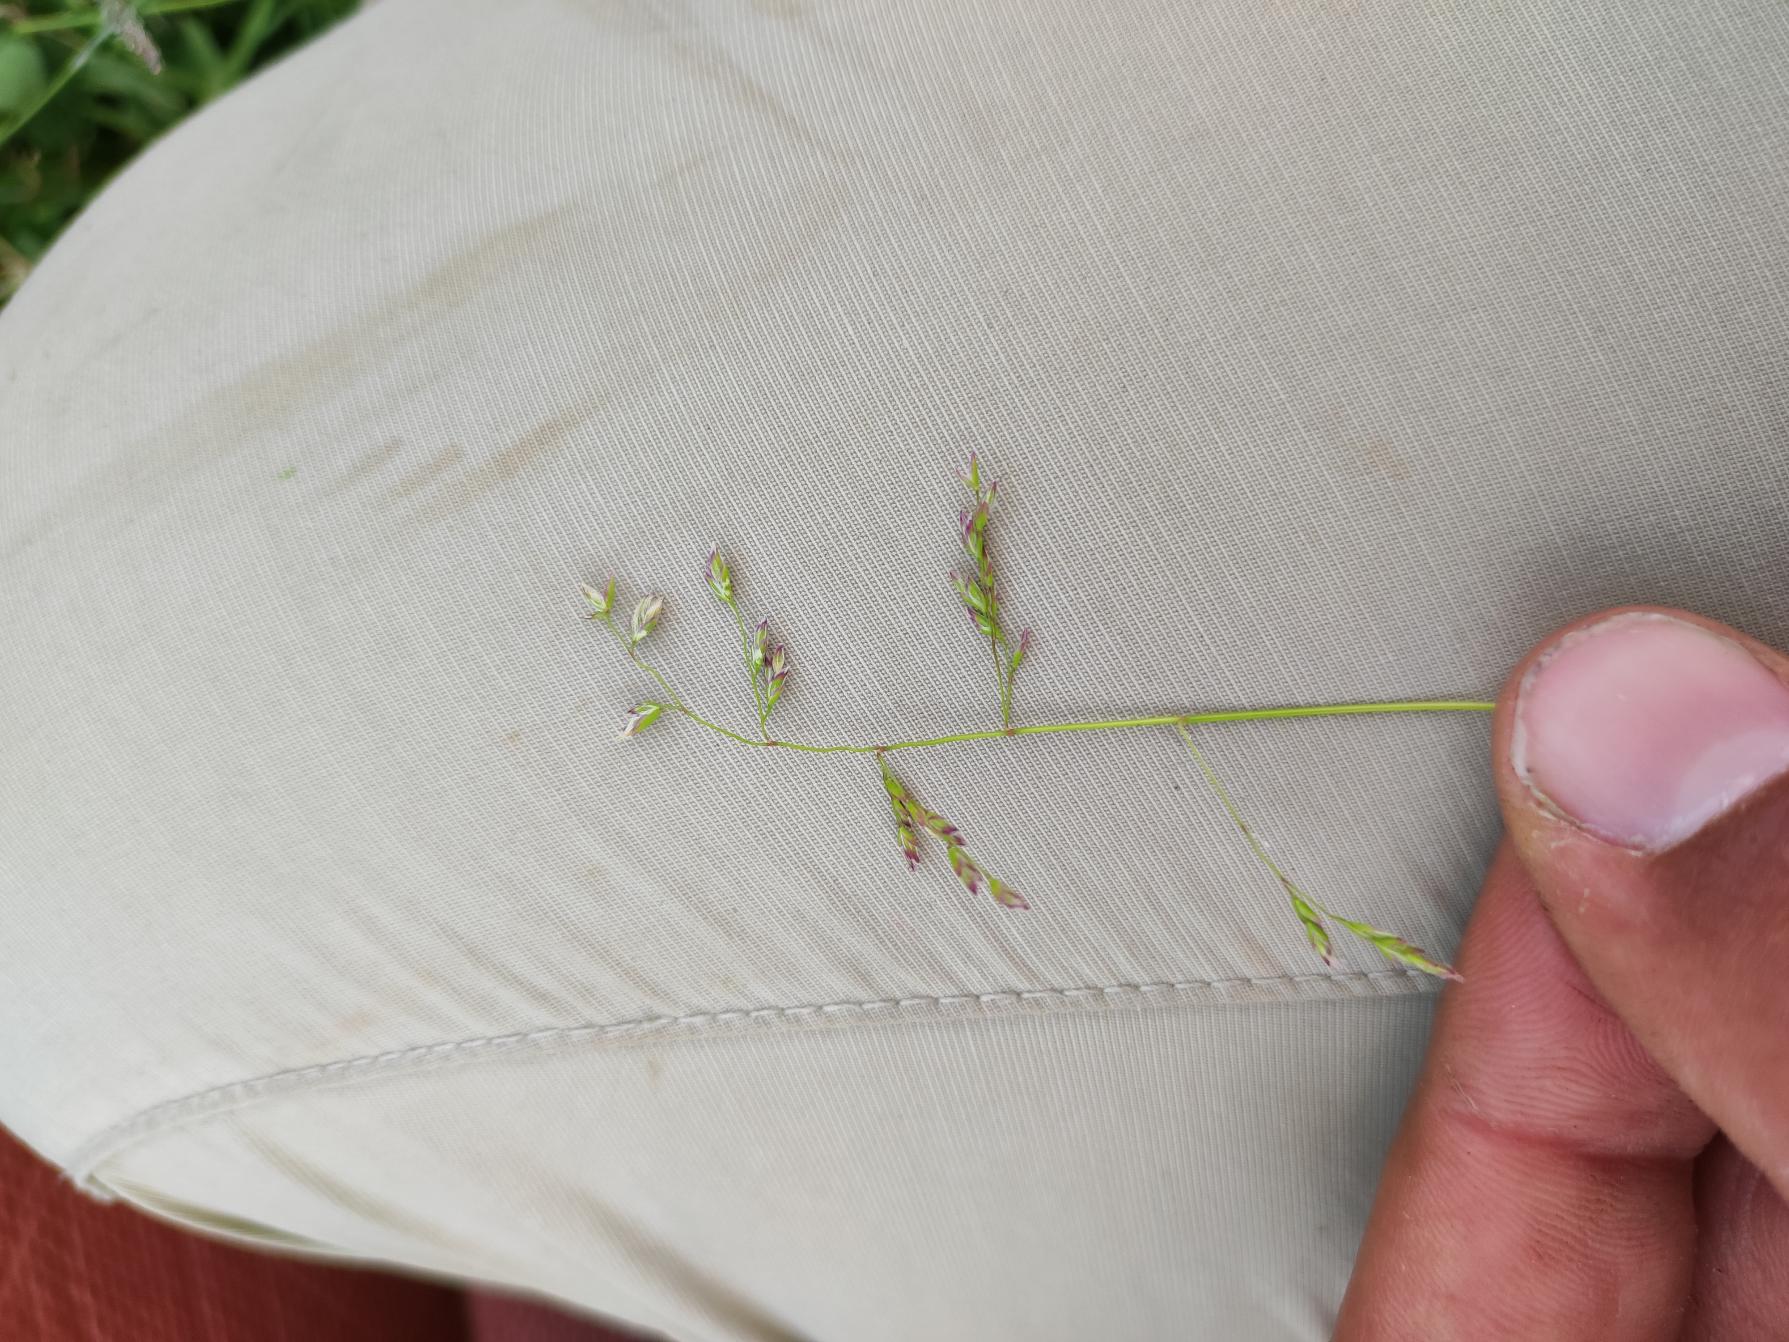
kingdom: Plantae
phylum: Tracheophyta
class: Liliopsida
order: Poales
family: Poaceae
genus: Poa
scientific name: Poa annua
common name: Enårig rapgræs
